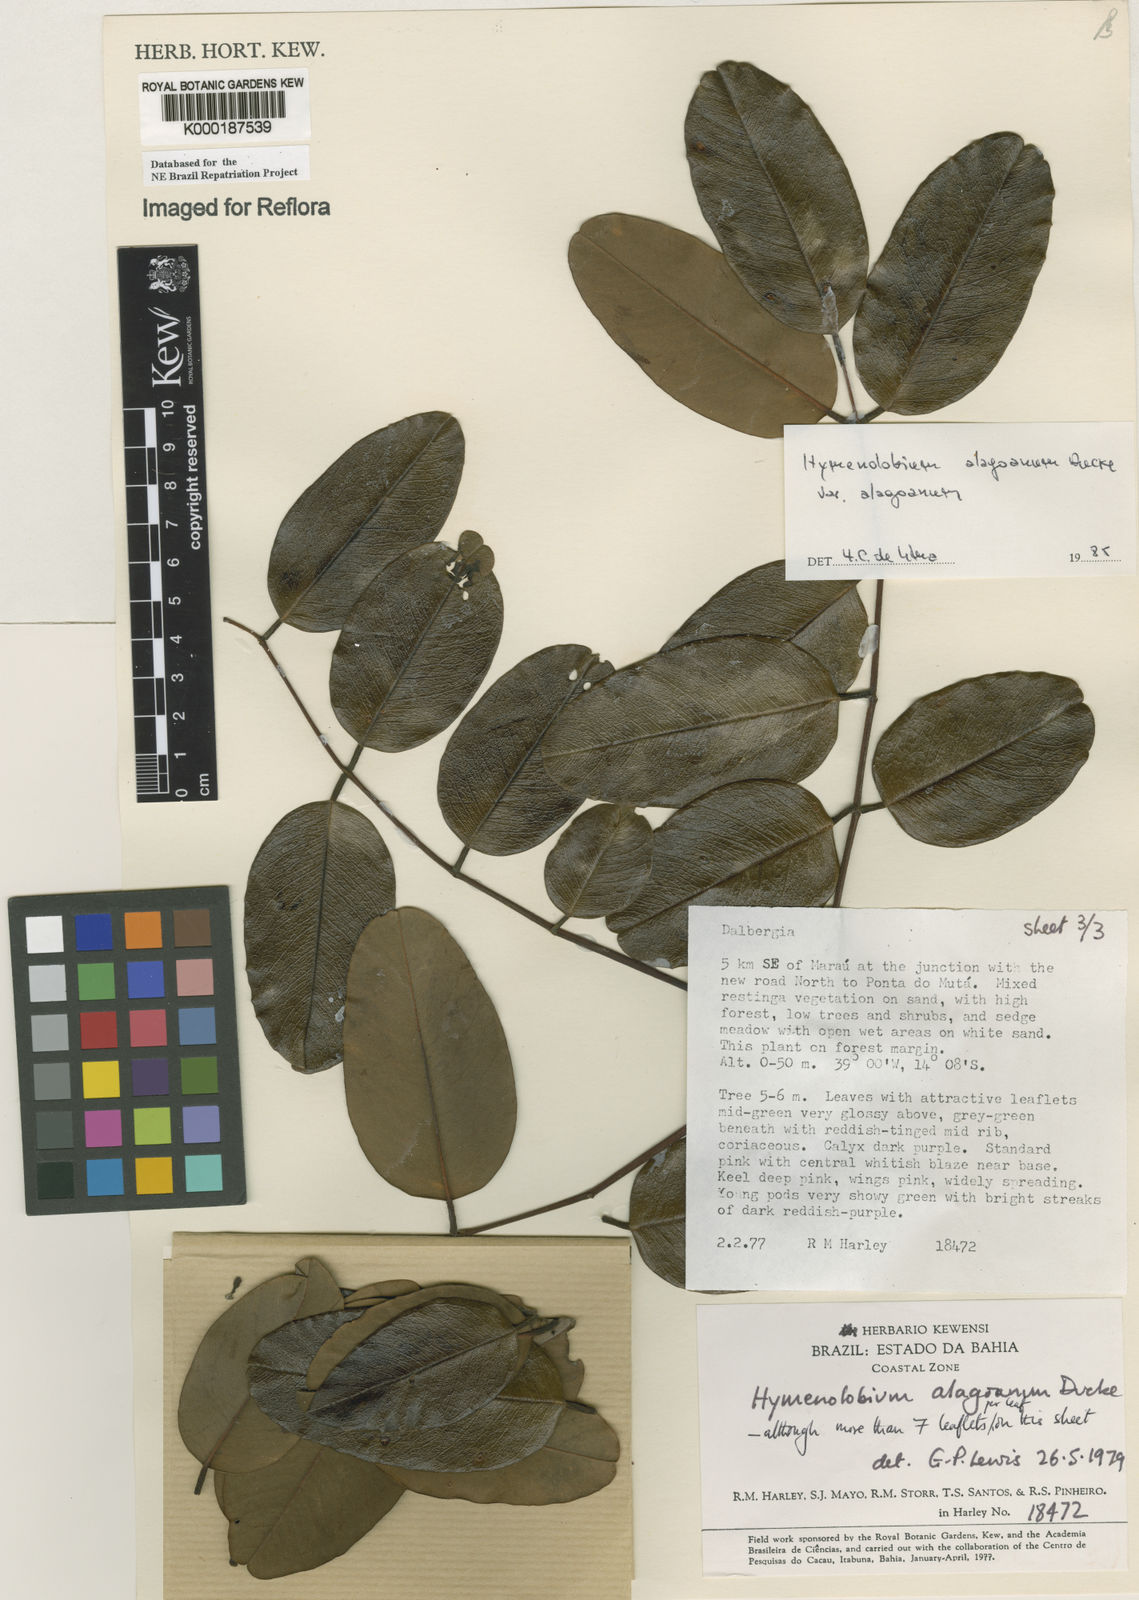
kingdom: Plantae
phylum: Tracheophyta
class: Magnoliopsida
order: Fabales
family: Fabaceae
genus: Hymenolobium
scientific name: Hymenolobium alagoanum
